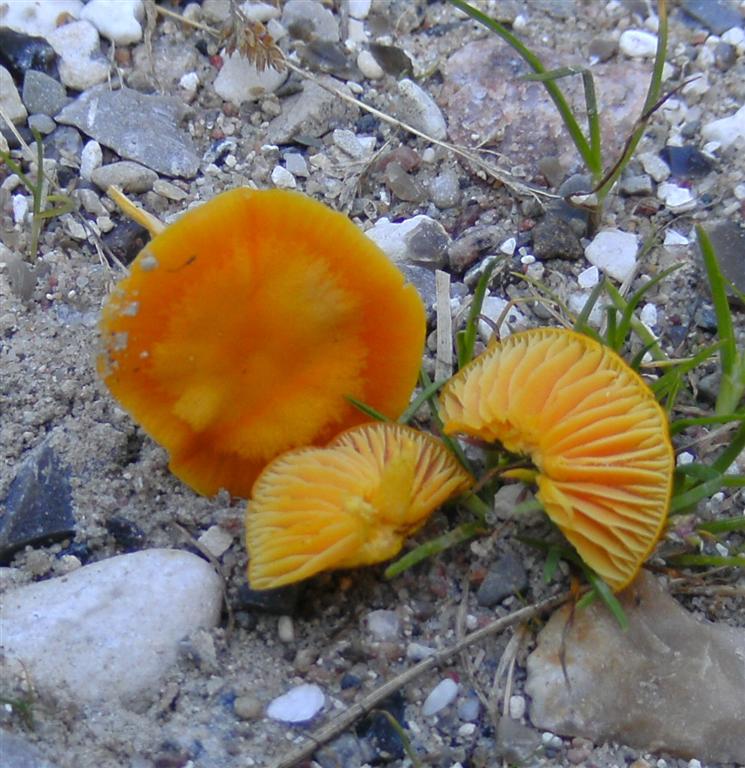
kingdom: Fungi
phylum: Basidiomycota
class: Agaricomycetes
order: Agaricales
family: Hygrophoraceae
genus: Hygrocybe
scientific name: Hygrocybe ceracea
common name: voksgul vokshat
